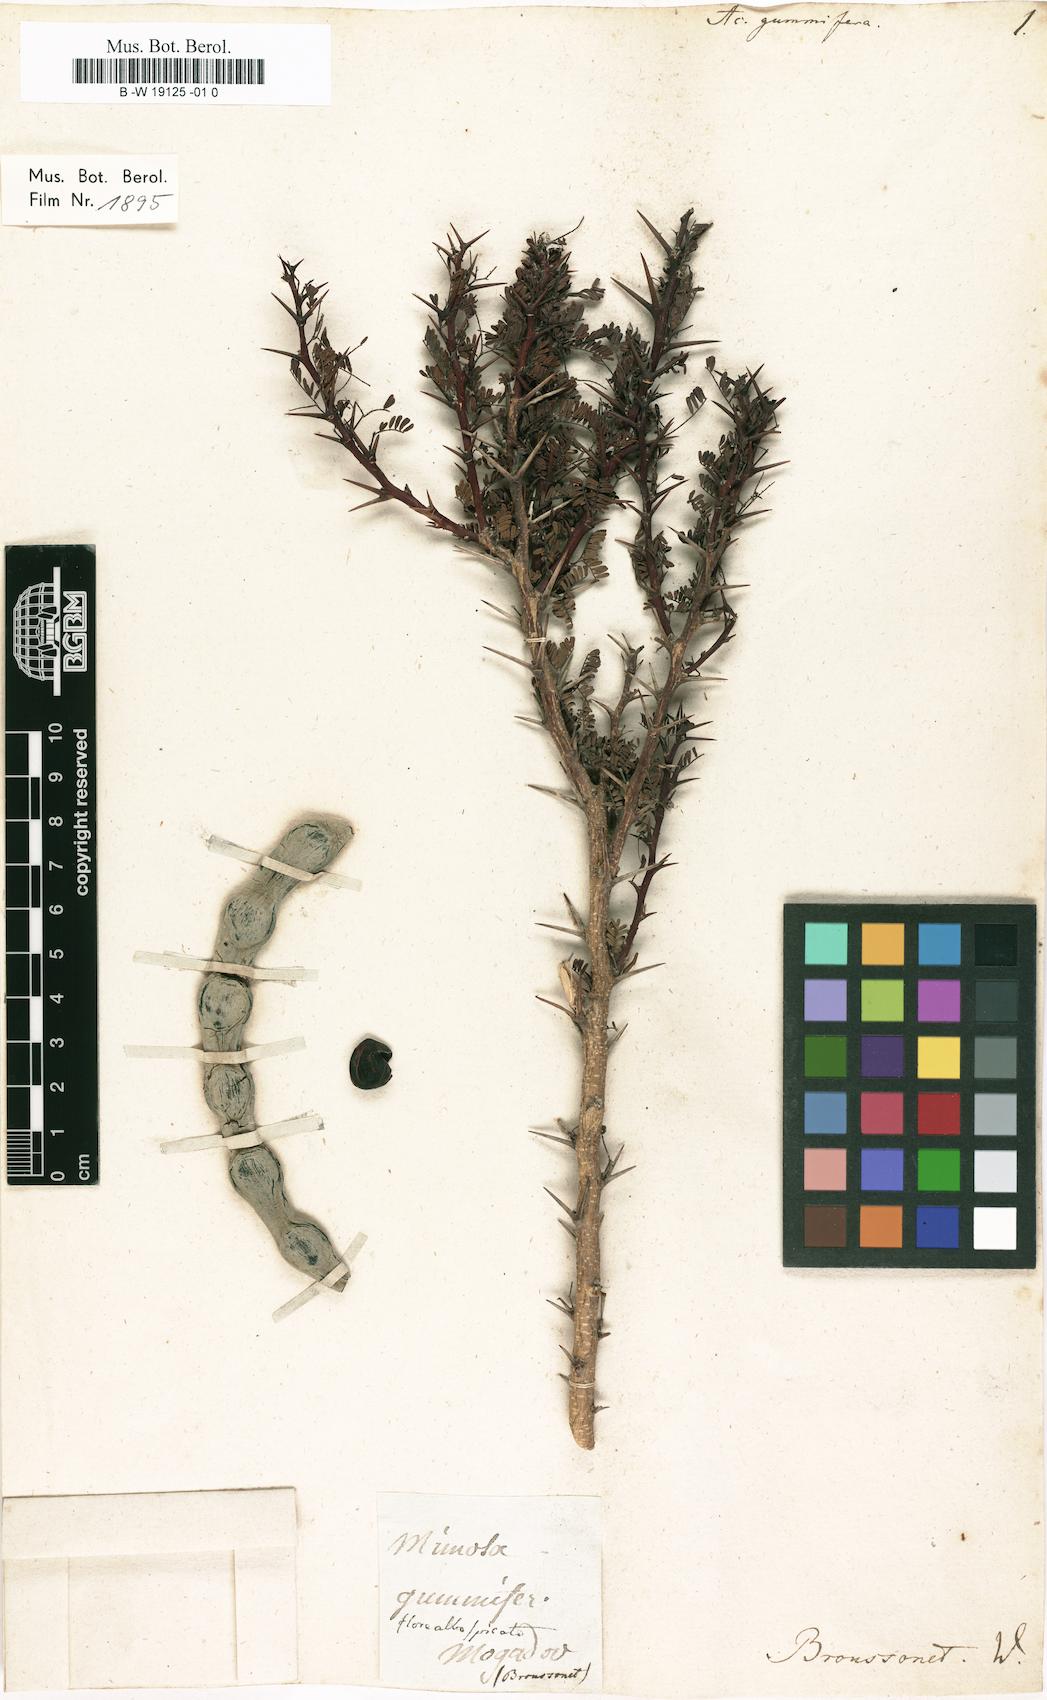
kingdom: Plantae
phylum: Tracheophyta
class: Magnoliopsida
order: Fabales
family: Fabaceae
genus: Vachellia
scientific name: Vachellia gummifera
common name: Morocco-gum
